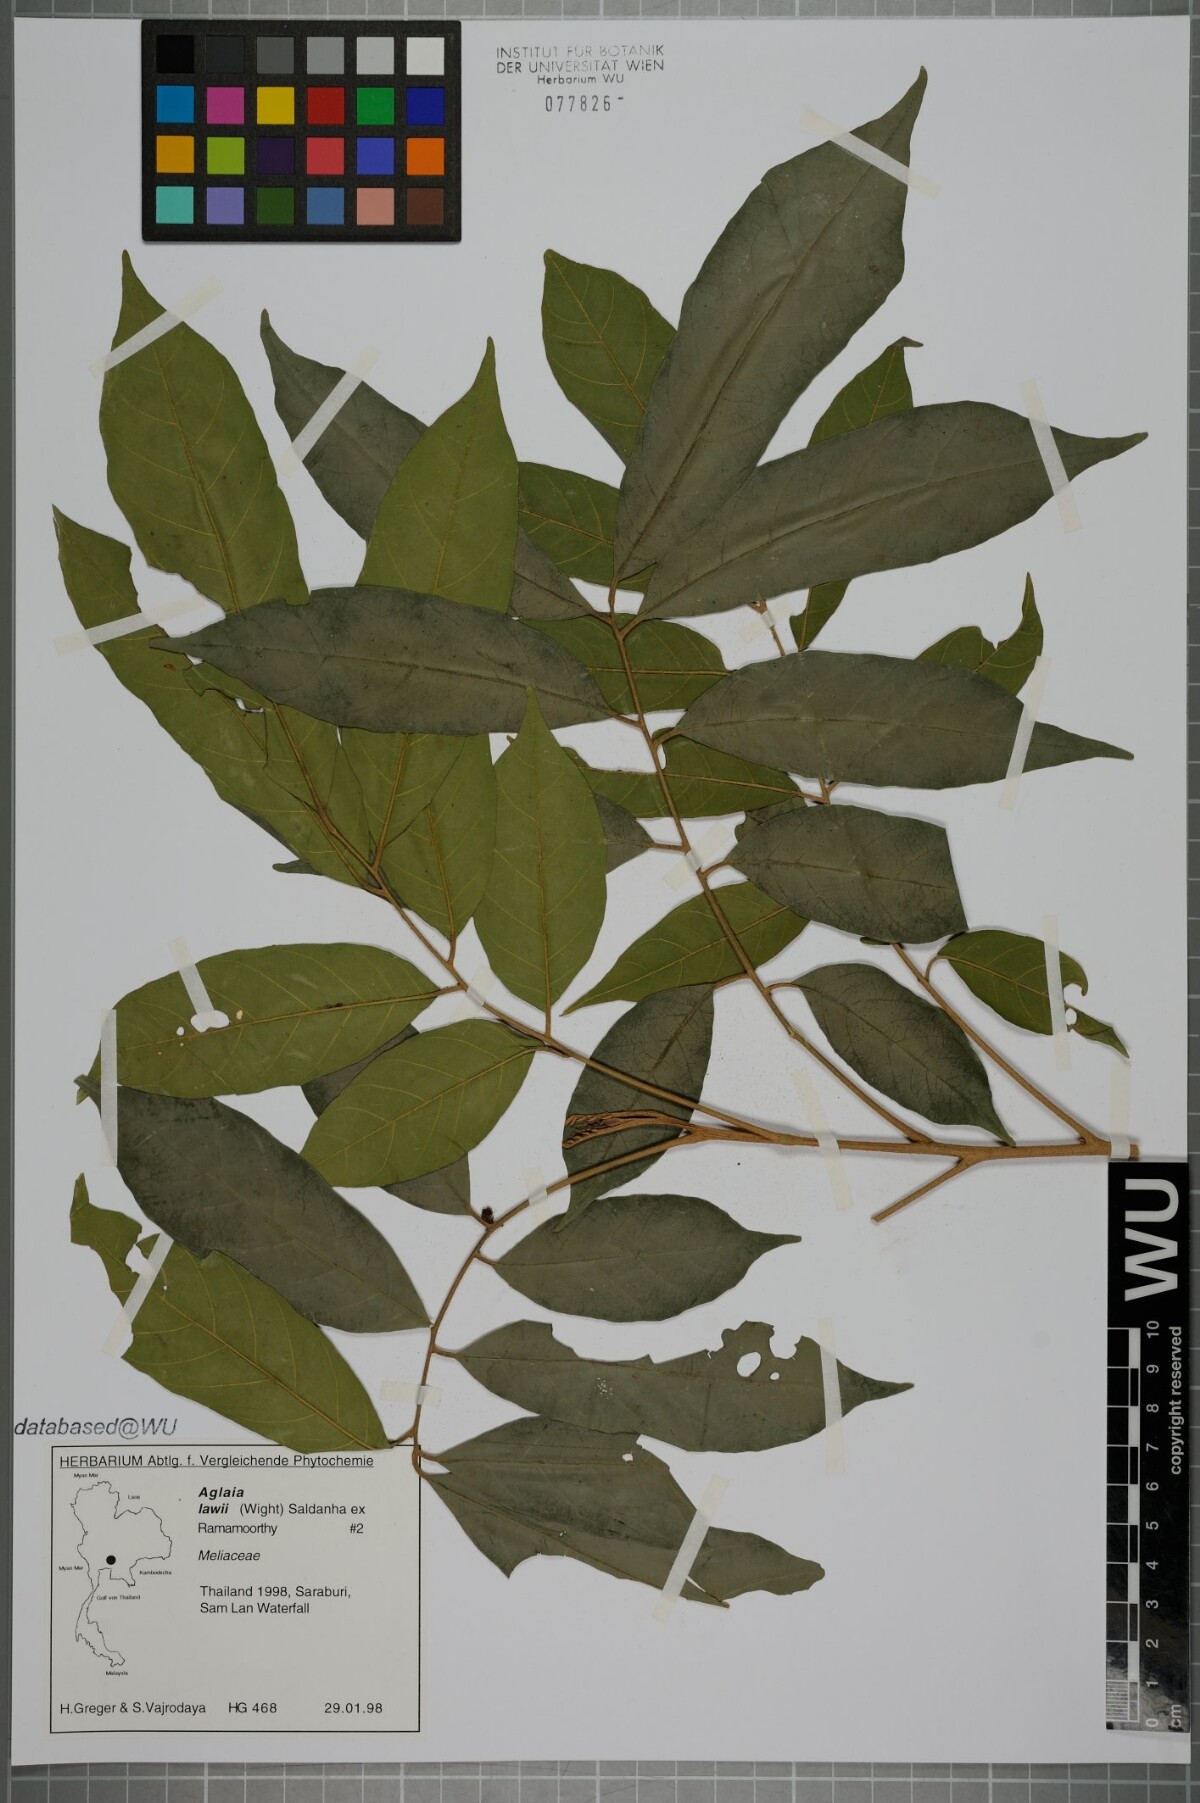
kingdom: Plantae
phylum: Tracheophyta
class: Magnoliopsida
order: Sapindales
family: Meliaceae
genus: Aglaia
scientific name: Aglaia lawii
